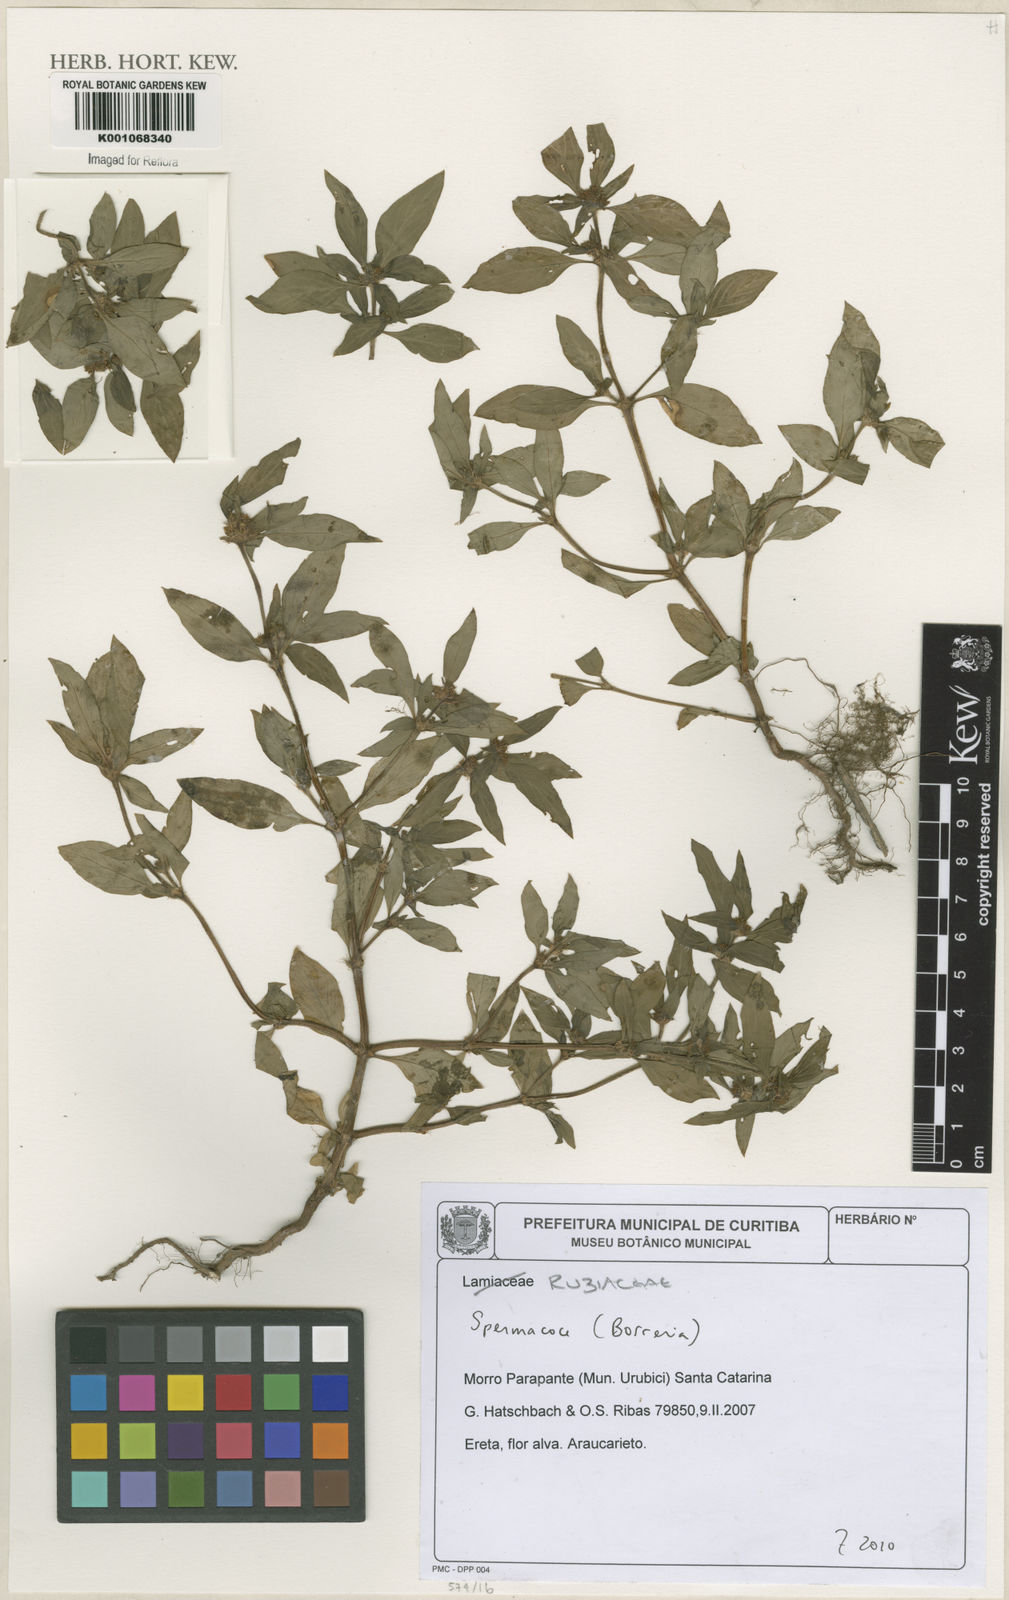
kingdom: Plantae
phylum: Tracheophyta
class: Magnoliopsida
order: Gentianales
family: Rubiaceae
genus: Spermacoce
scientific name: Spermacoce
